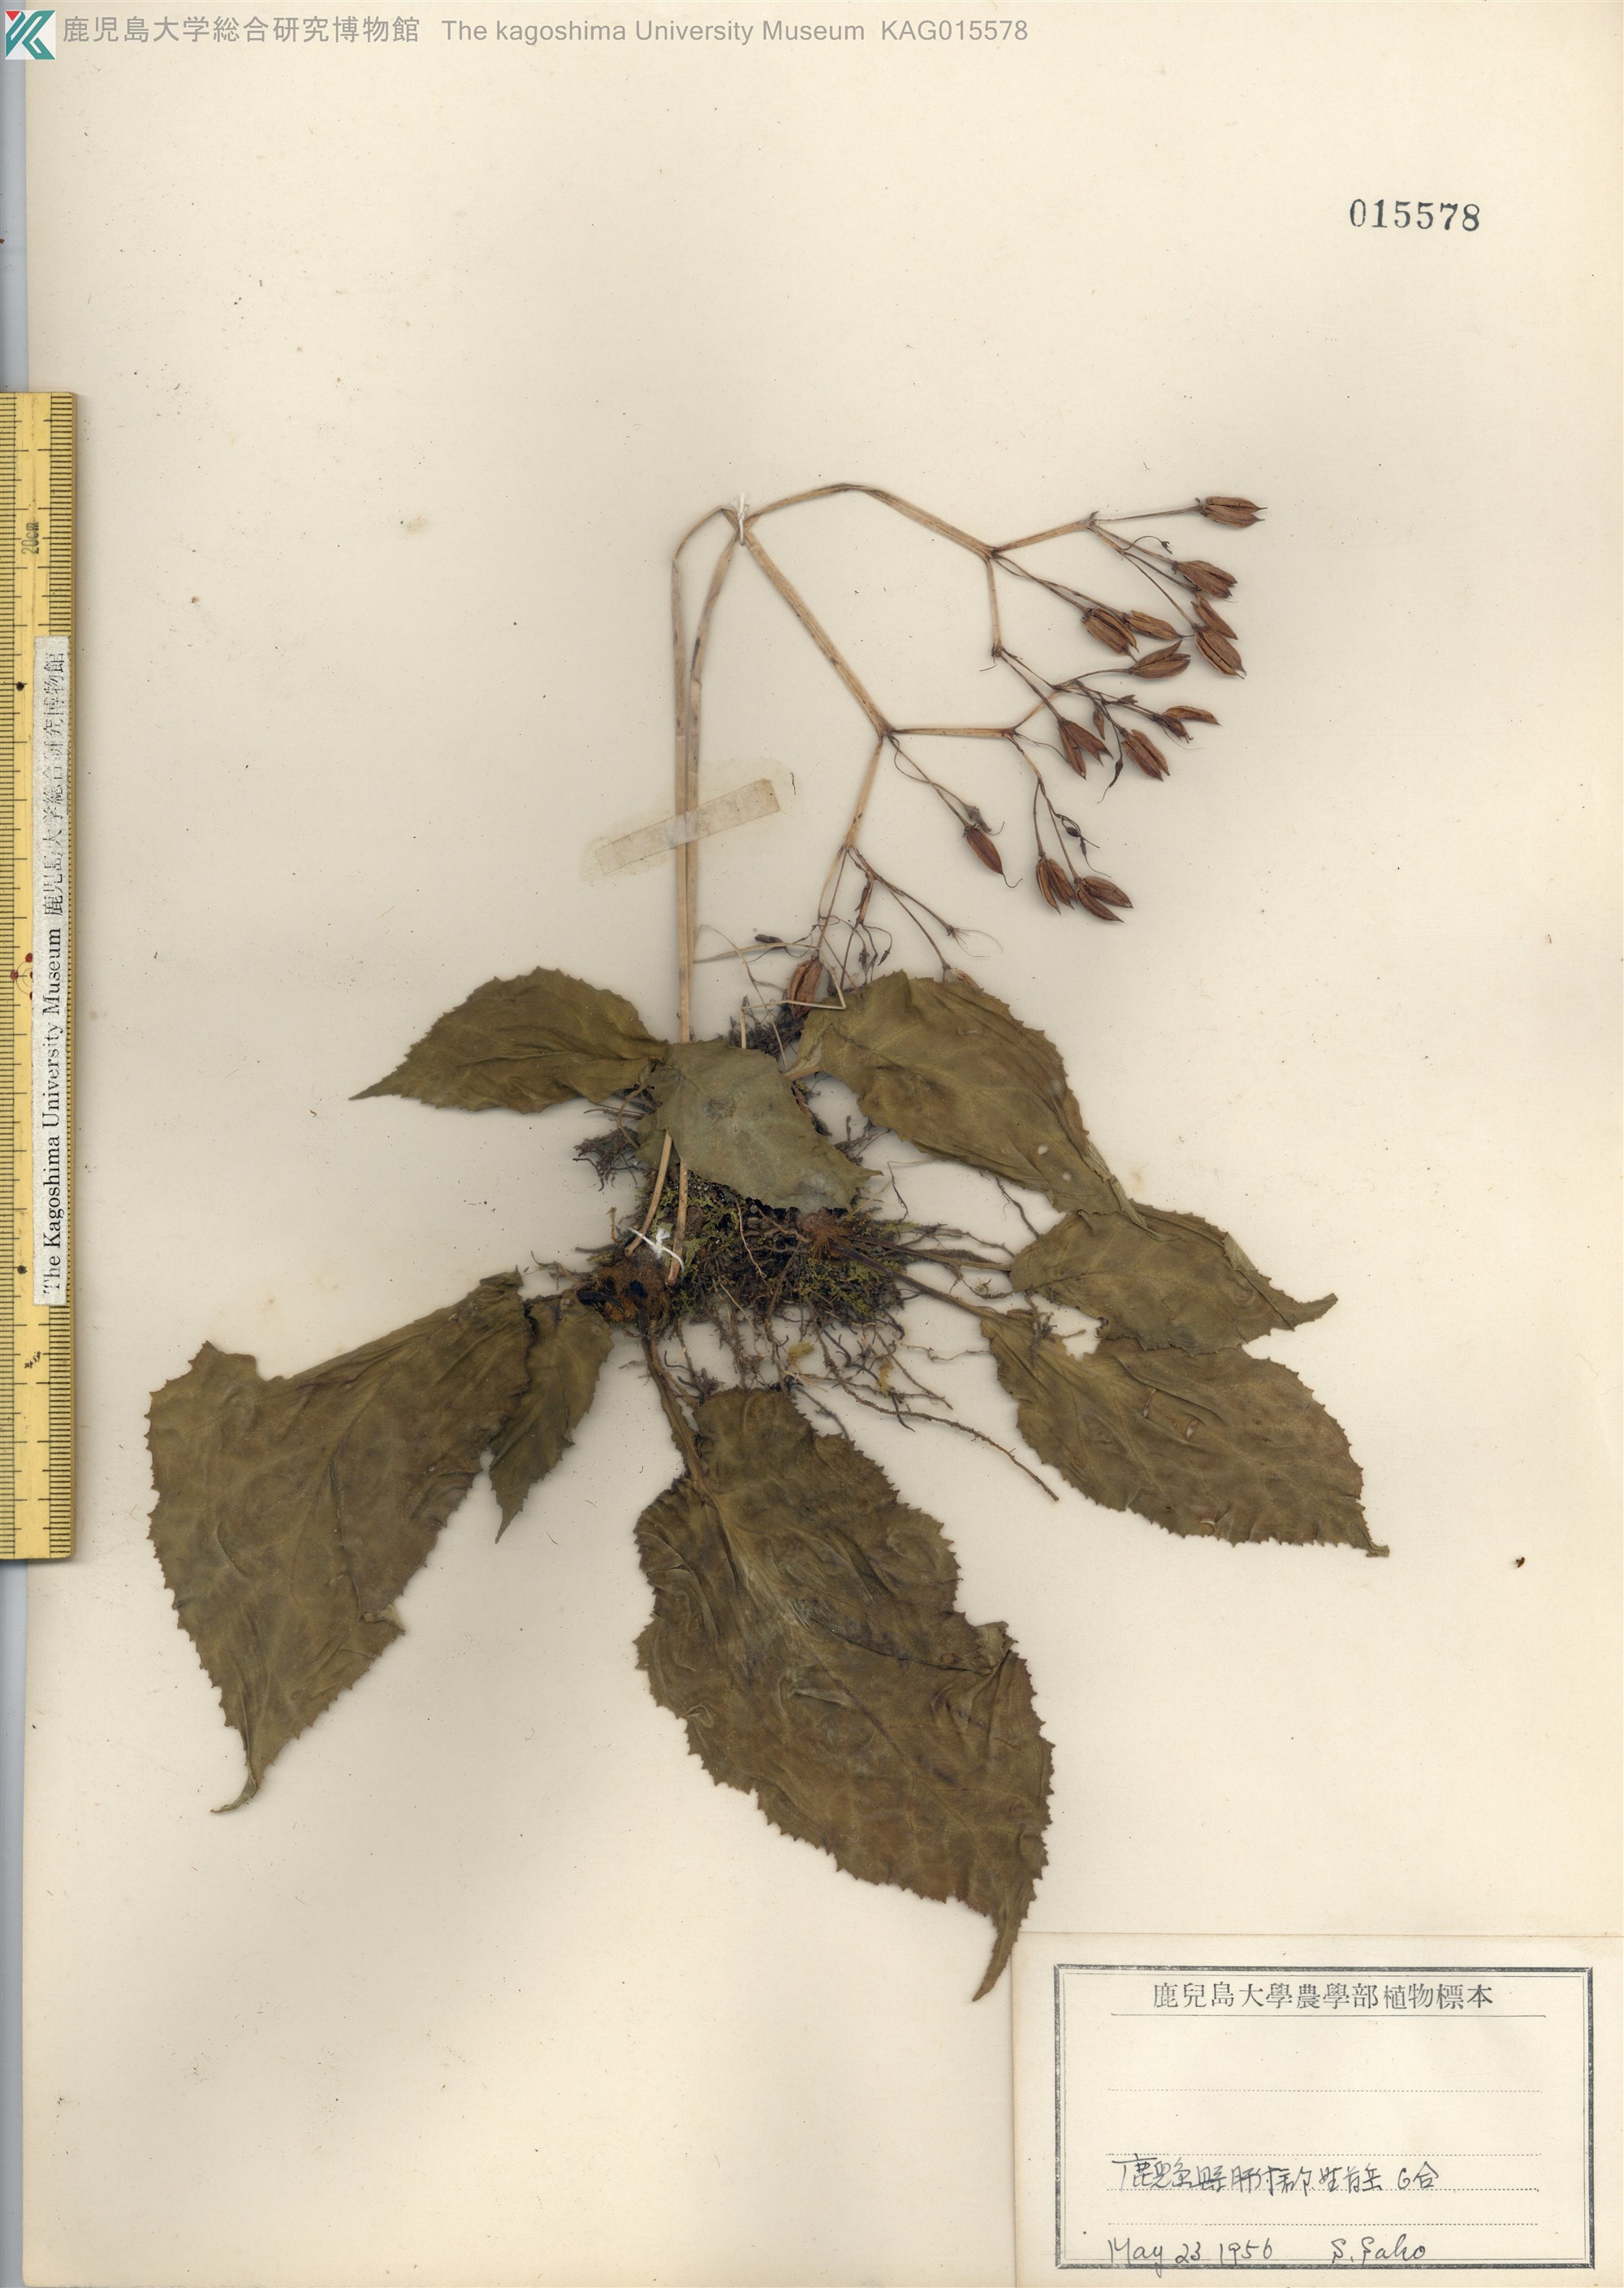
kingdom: Plantae
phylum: Tracheophyta
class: Magnoliopsida
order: Lamiales
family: Gesneriaceae
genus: Conandron
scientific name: Conandron ramondioides
